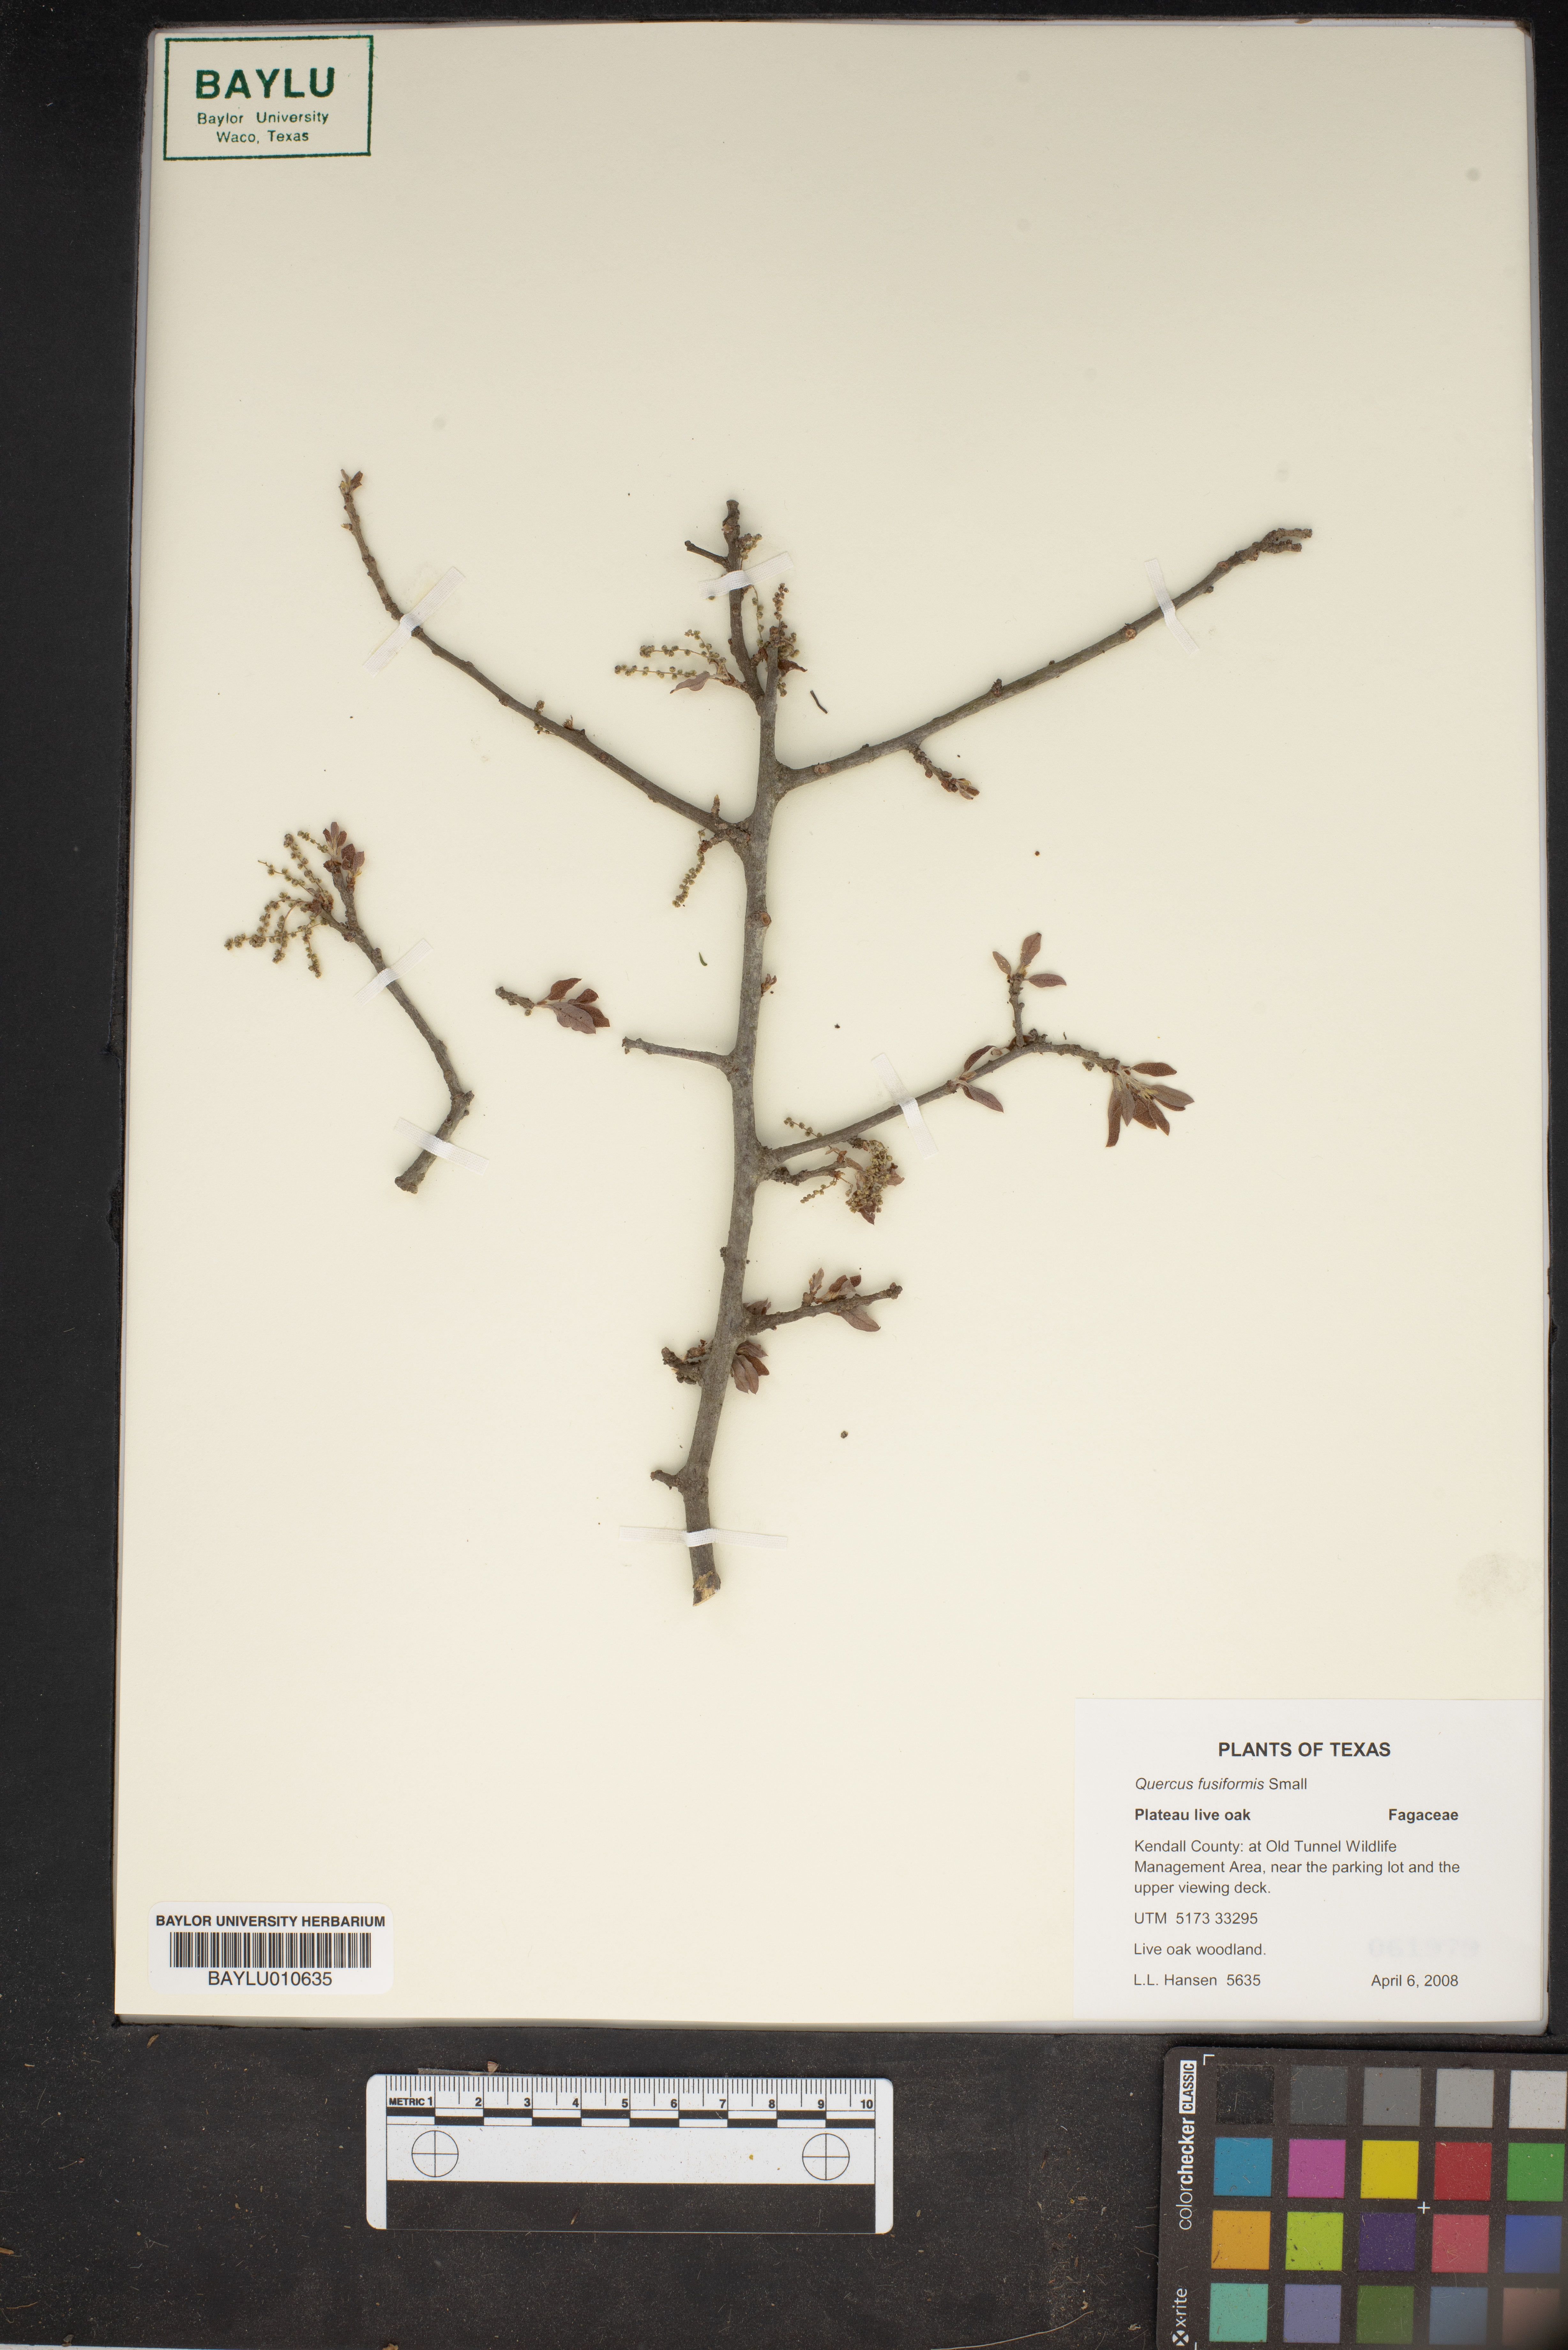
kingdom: Plantae
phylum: Tracheophyta
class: Magnoliopsida
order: Fagales
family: Fagaceae
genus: Quercus
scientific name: Quercus fusiformis
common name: Texas live oak
